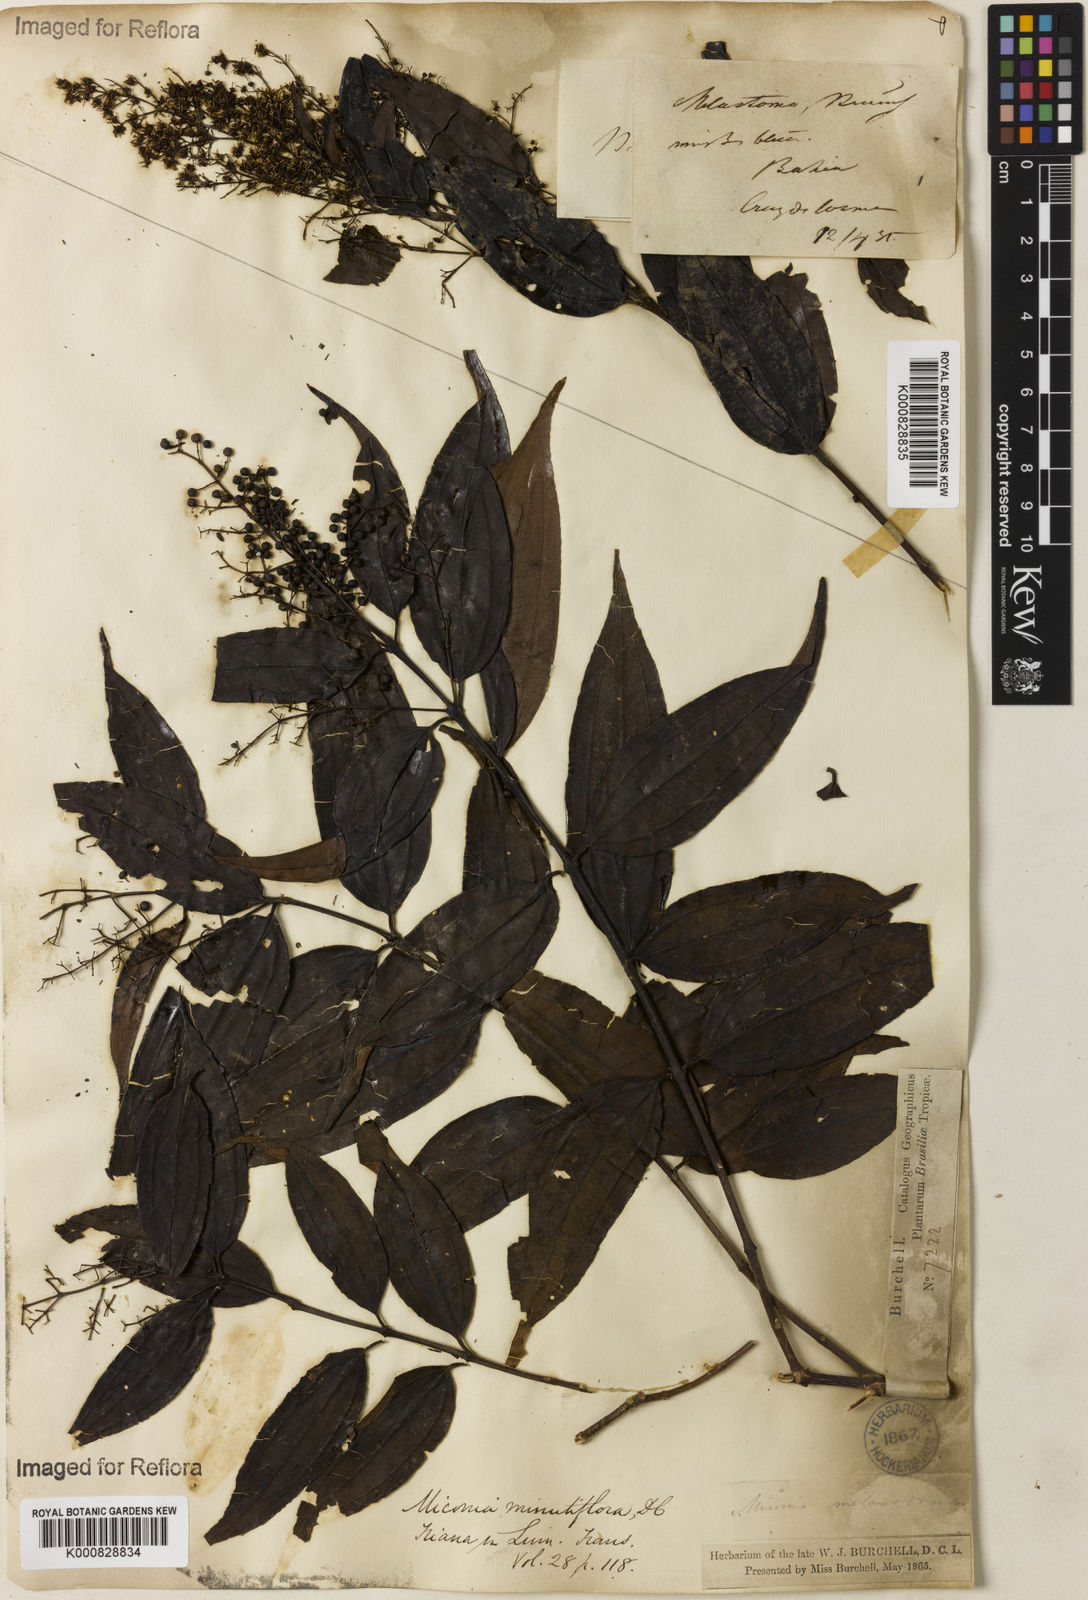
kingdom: Plantae
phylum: Tracheophyta
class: Magnoliopsida
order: Myrtales
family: Melastomataceae
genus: Miconia
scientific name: Miconia minutiflora
